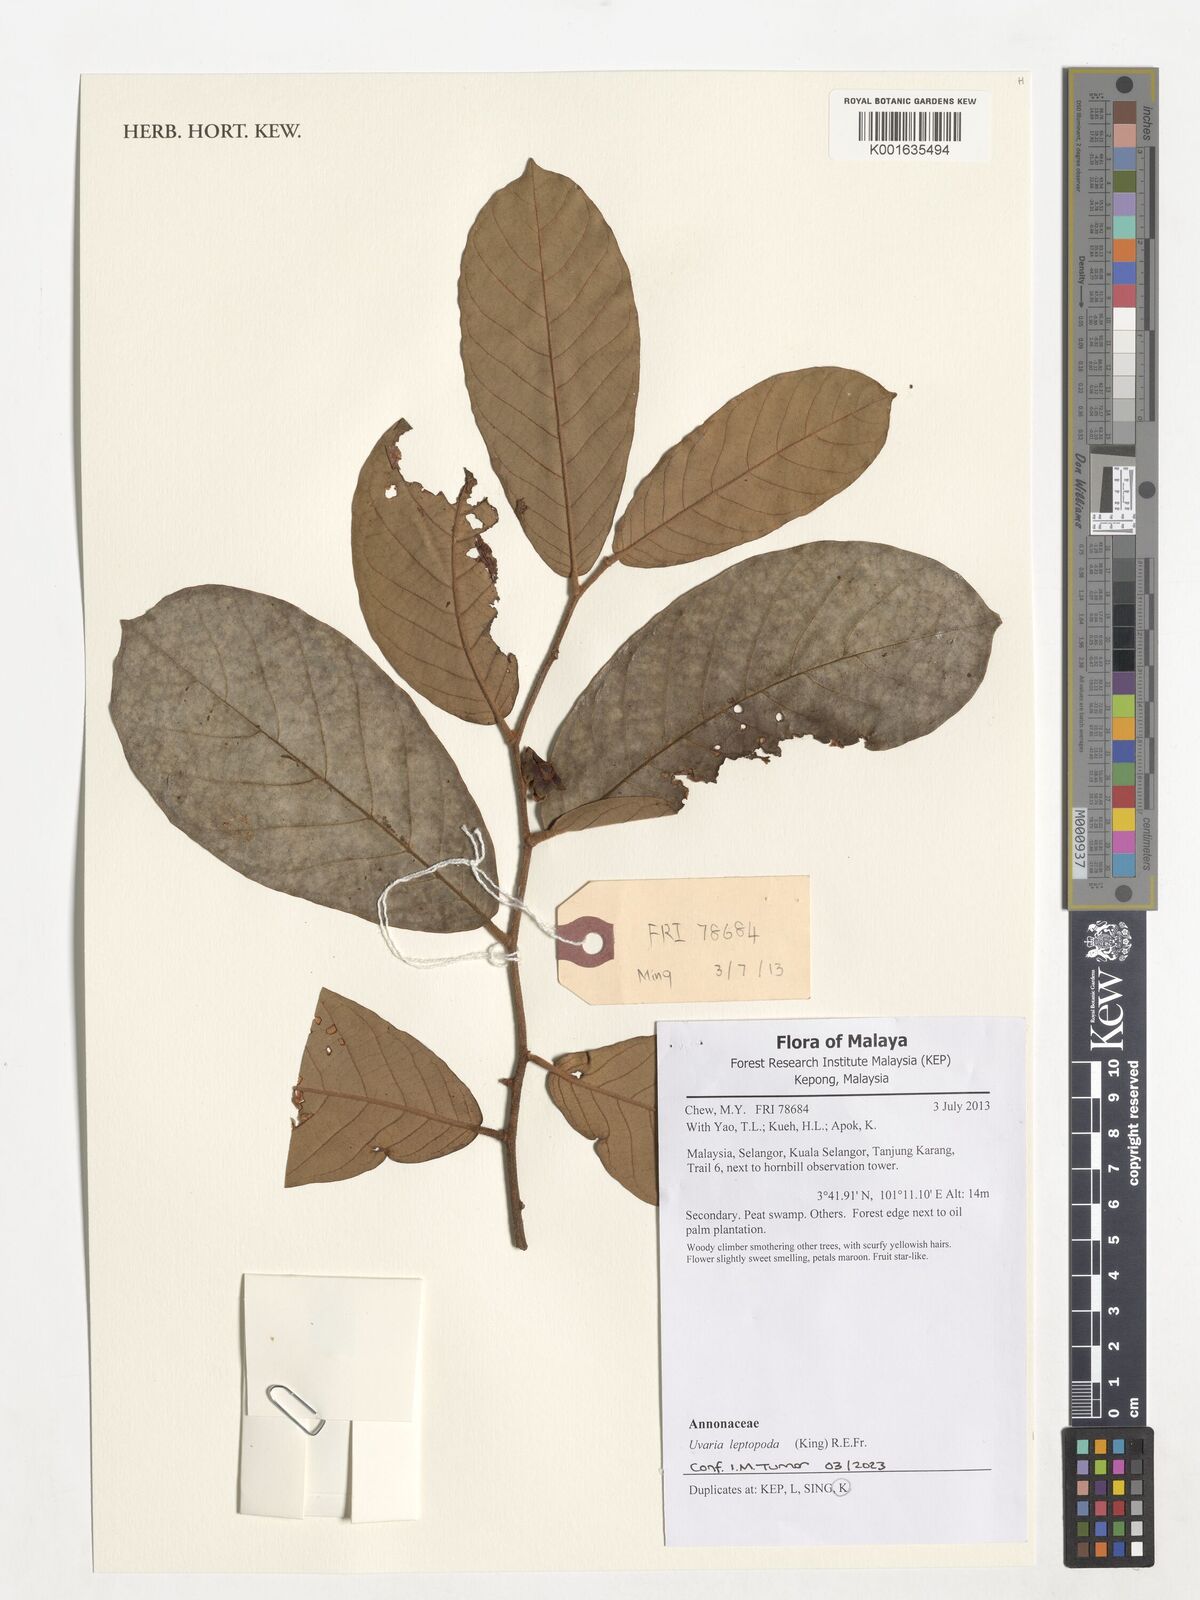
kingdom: Plantae
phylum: Tracheophyta
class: Magnoliopsida
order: Magnoliales
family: Annonaceae
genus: Uvaria
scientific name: Uvaria leptopoda
